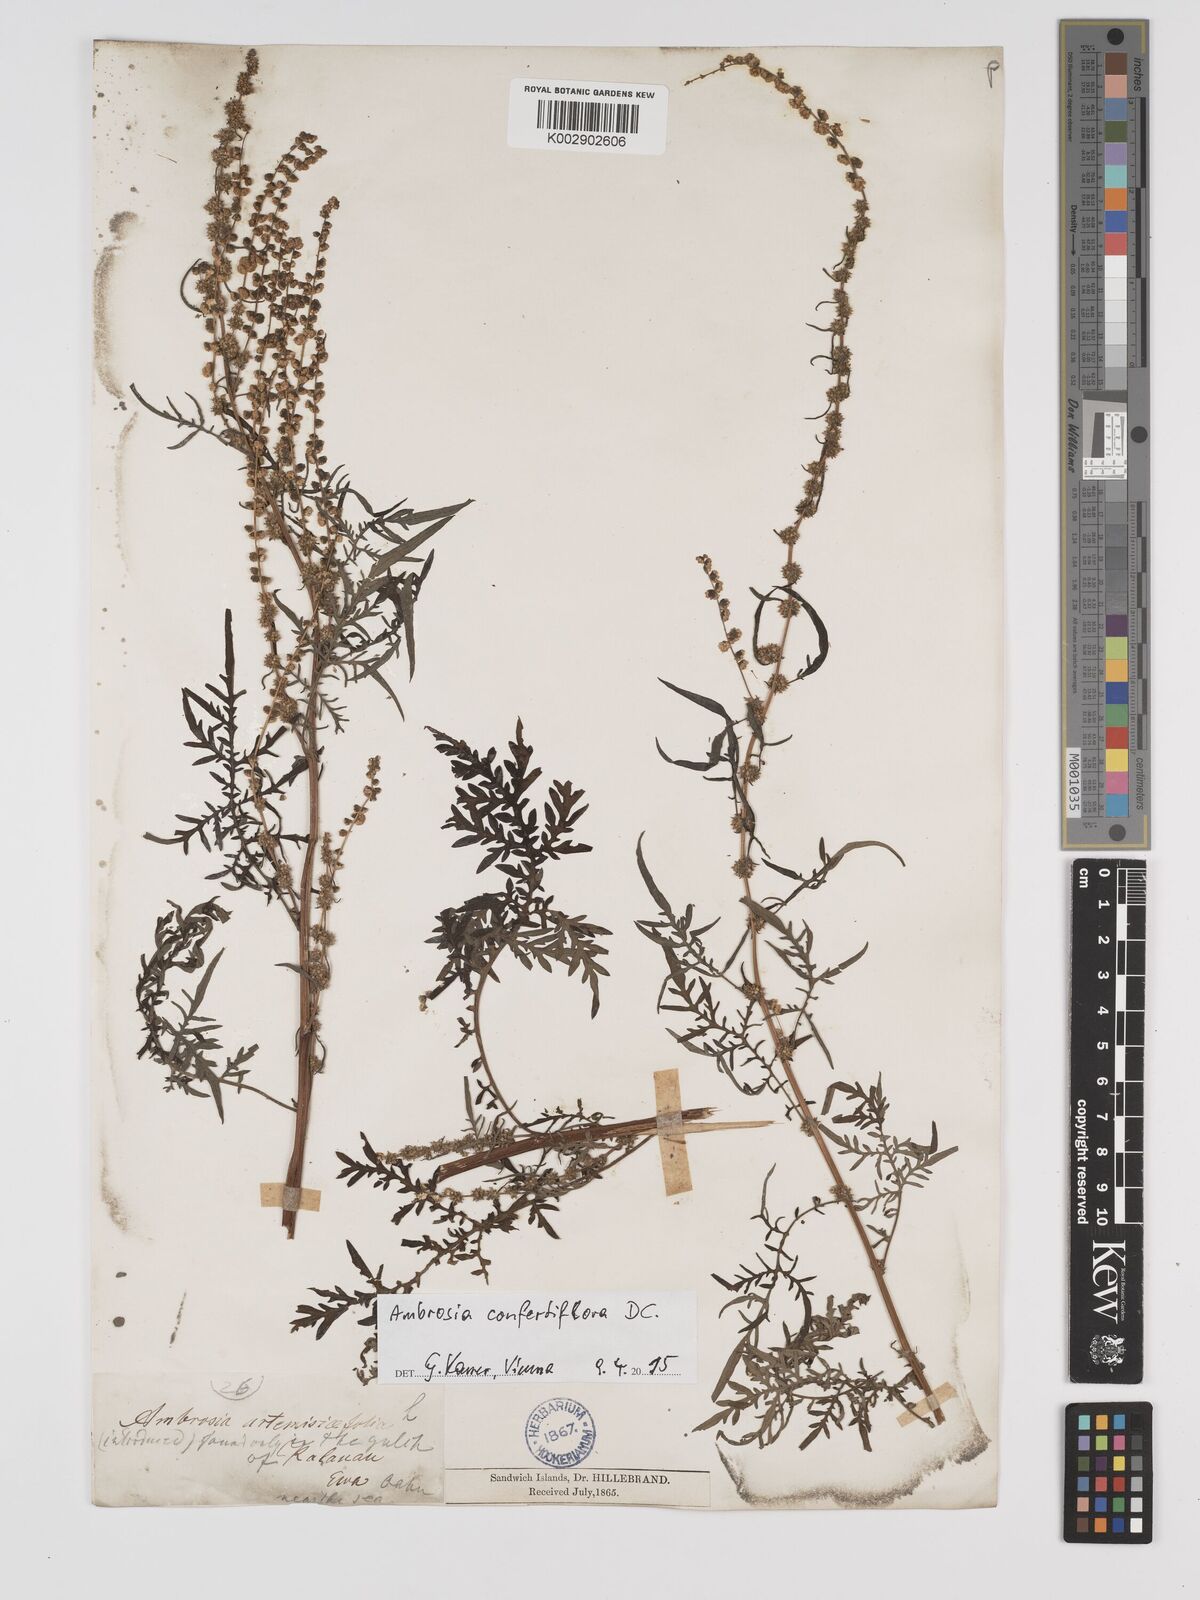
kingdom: Plantae
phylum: Tracheophyta
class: Magnoliopsida
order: Asterales
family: Asteraceae
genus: Ambrosia
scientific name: Ambrosia confertiflora
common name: Bur ragweed
